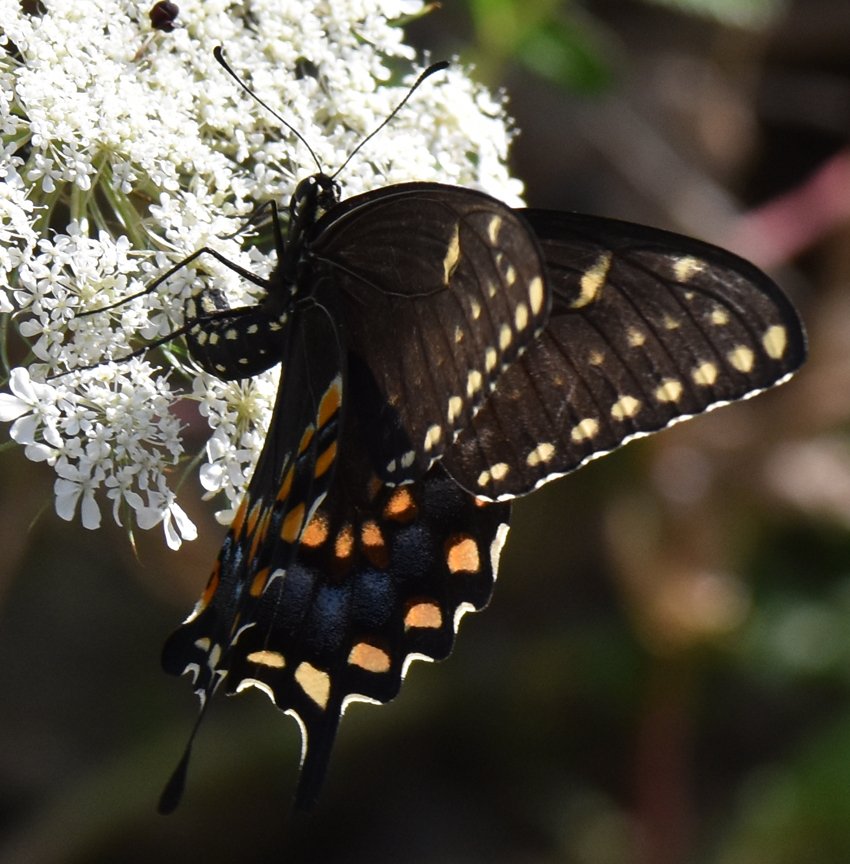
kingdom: Animalia
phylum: Arthropoda
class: Insecta
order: Lepidoptera
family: Papilionidae
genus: Papilio
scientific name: Papilio polyxenes
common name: Black Swallowtail
